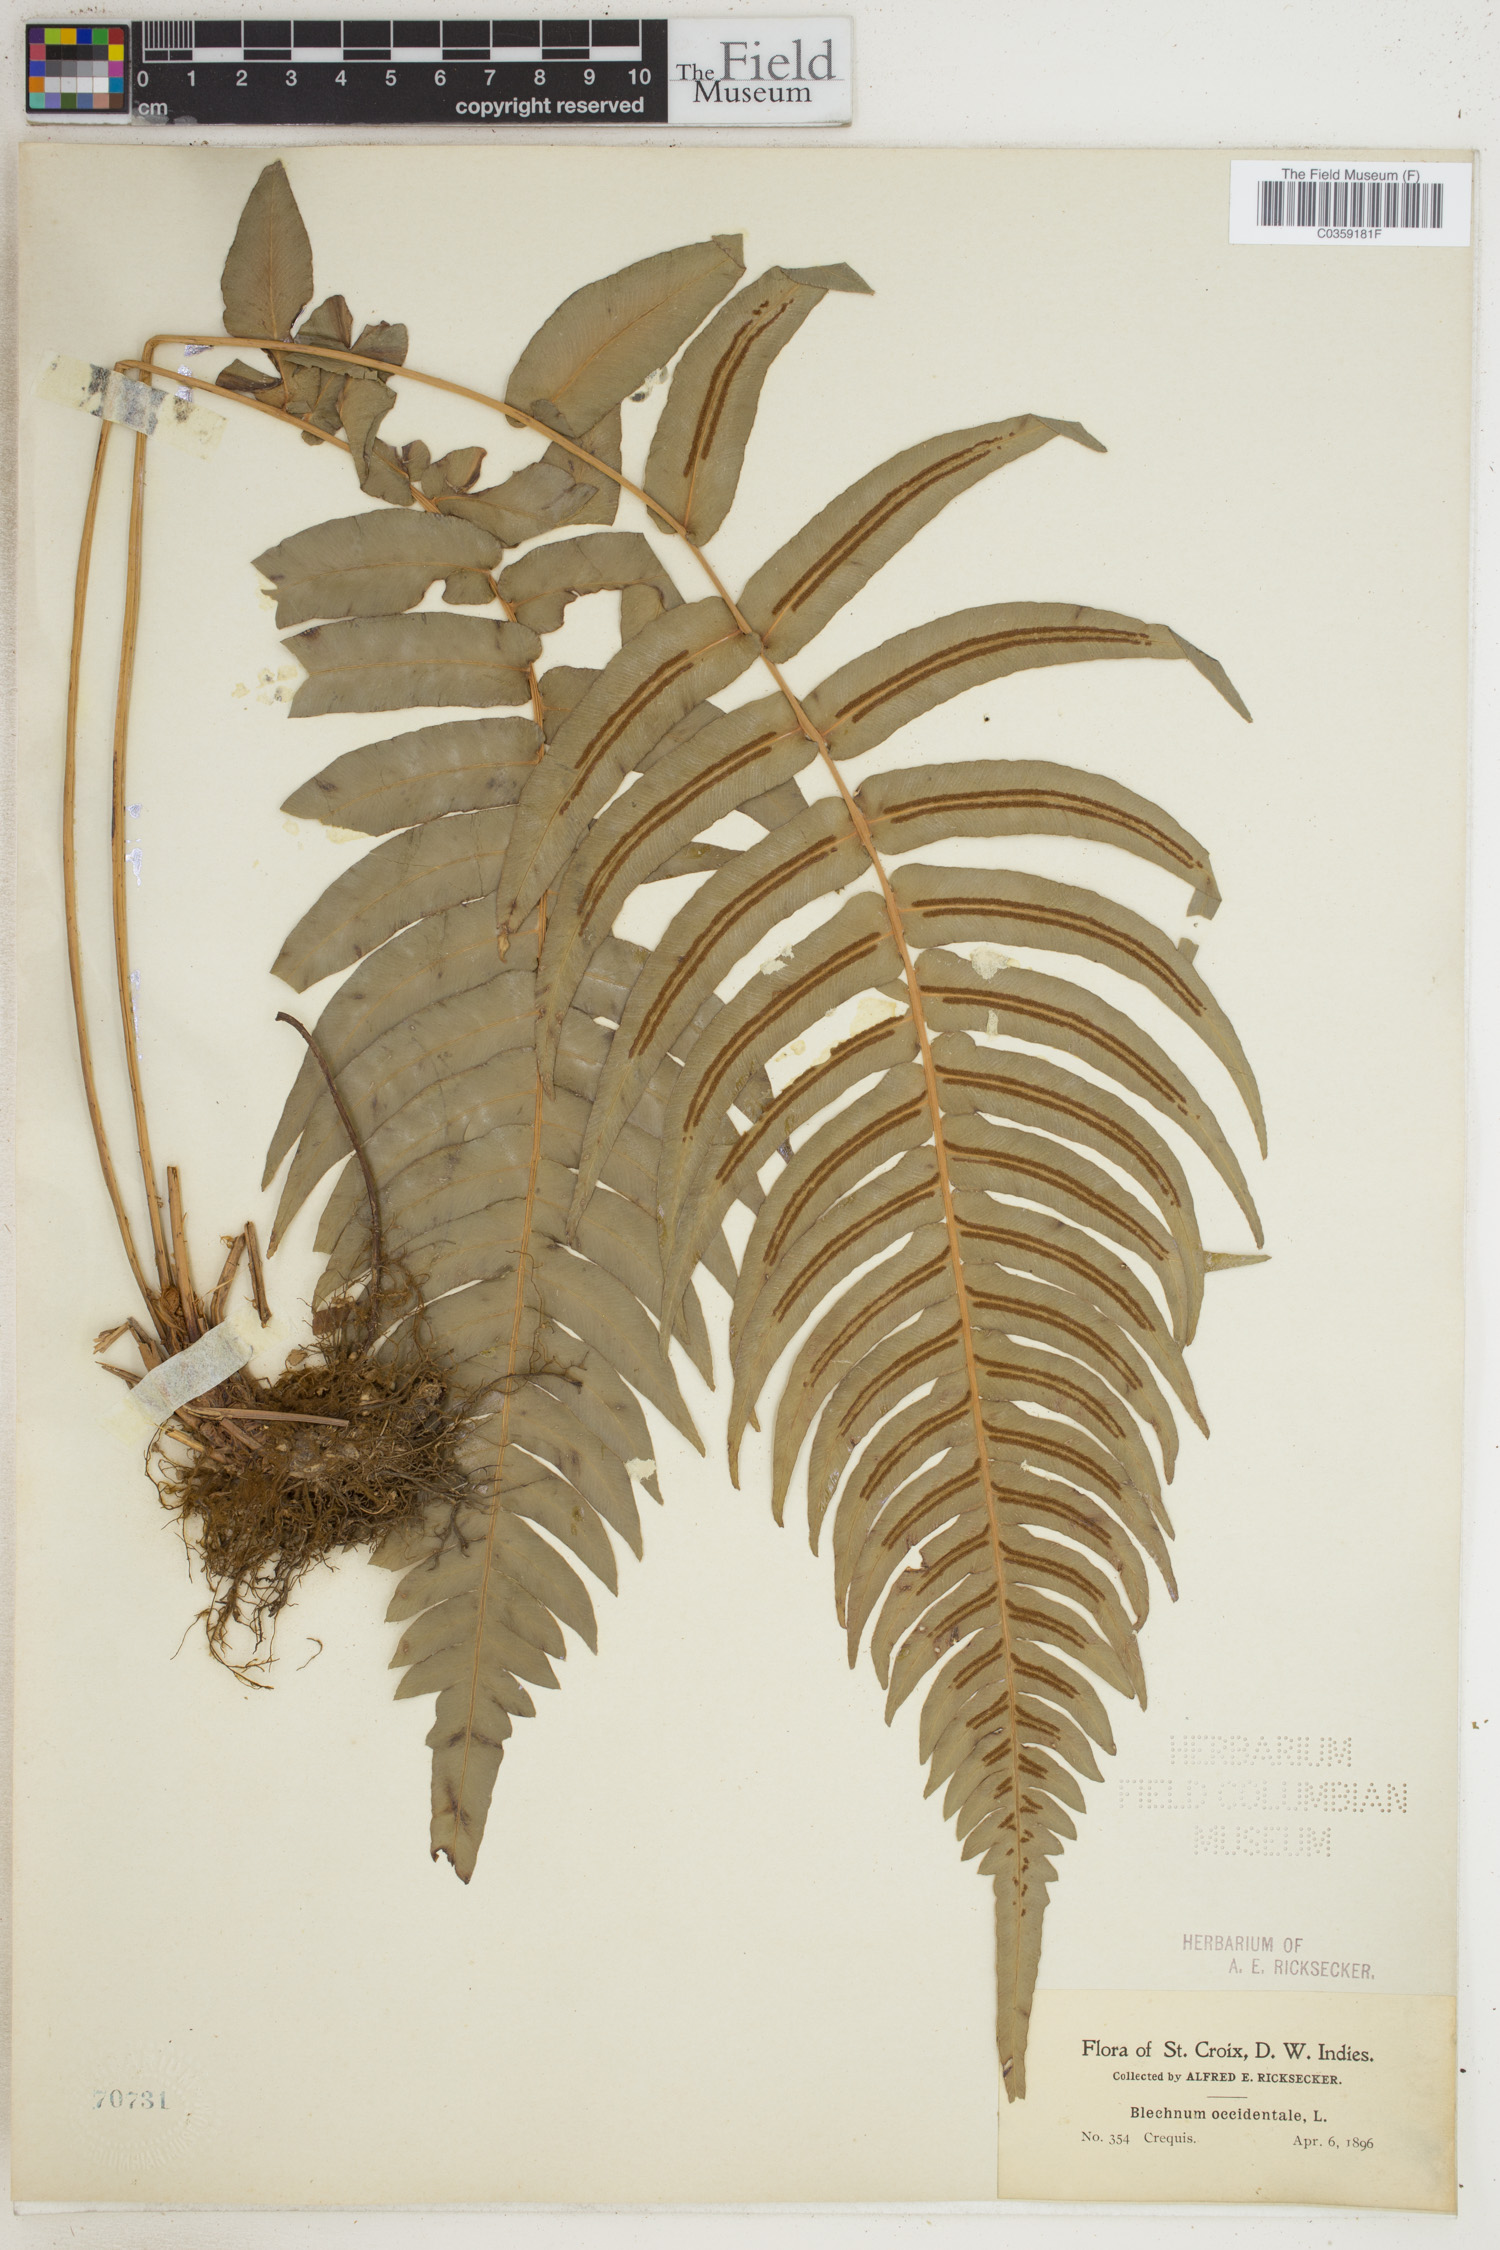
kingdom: Plantae
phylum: Tracheophyta
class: Polypodiopsida
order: Polypodiales
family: Blechnaceae
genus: Blechnum
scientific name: Blechnum occidentale
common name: Hammock fern
